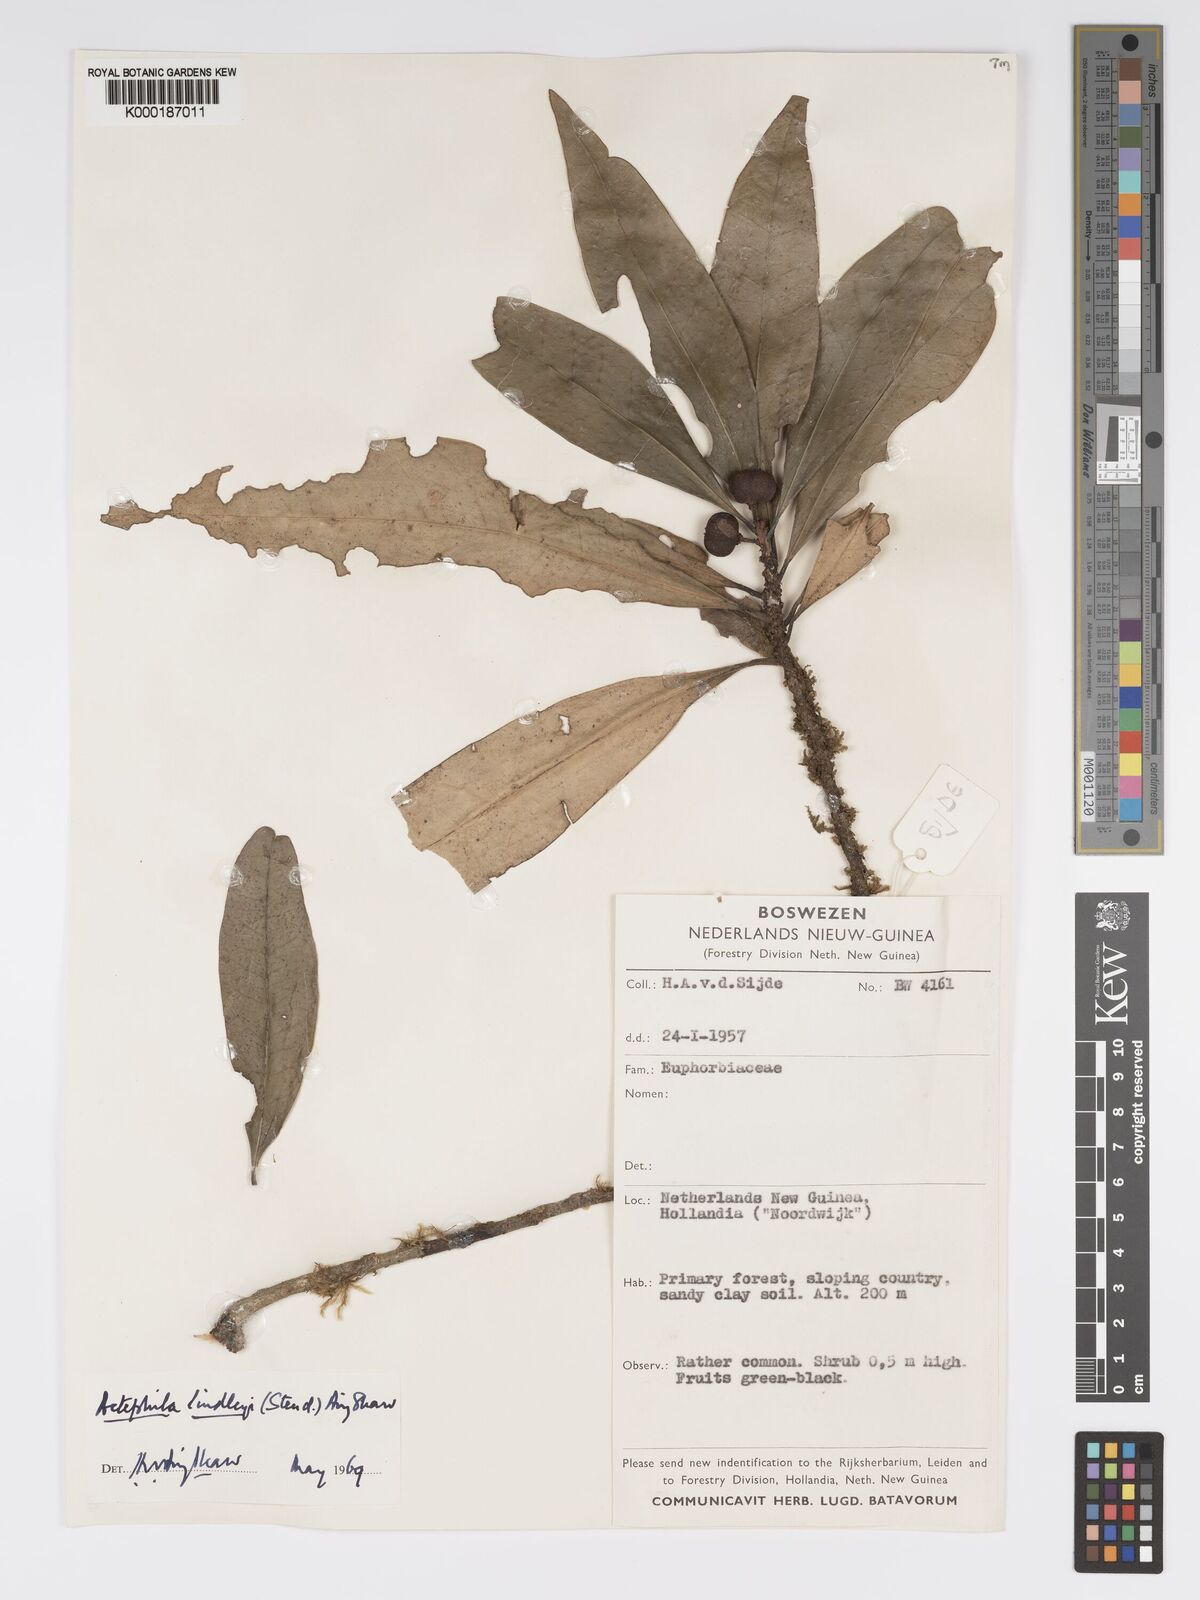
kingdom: Plantae
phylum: Tracheophyta
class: Magnoliopsida
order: Malpighiales
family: Phyllanthaceae
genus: Actephila
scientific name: Actephila lindleyi
